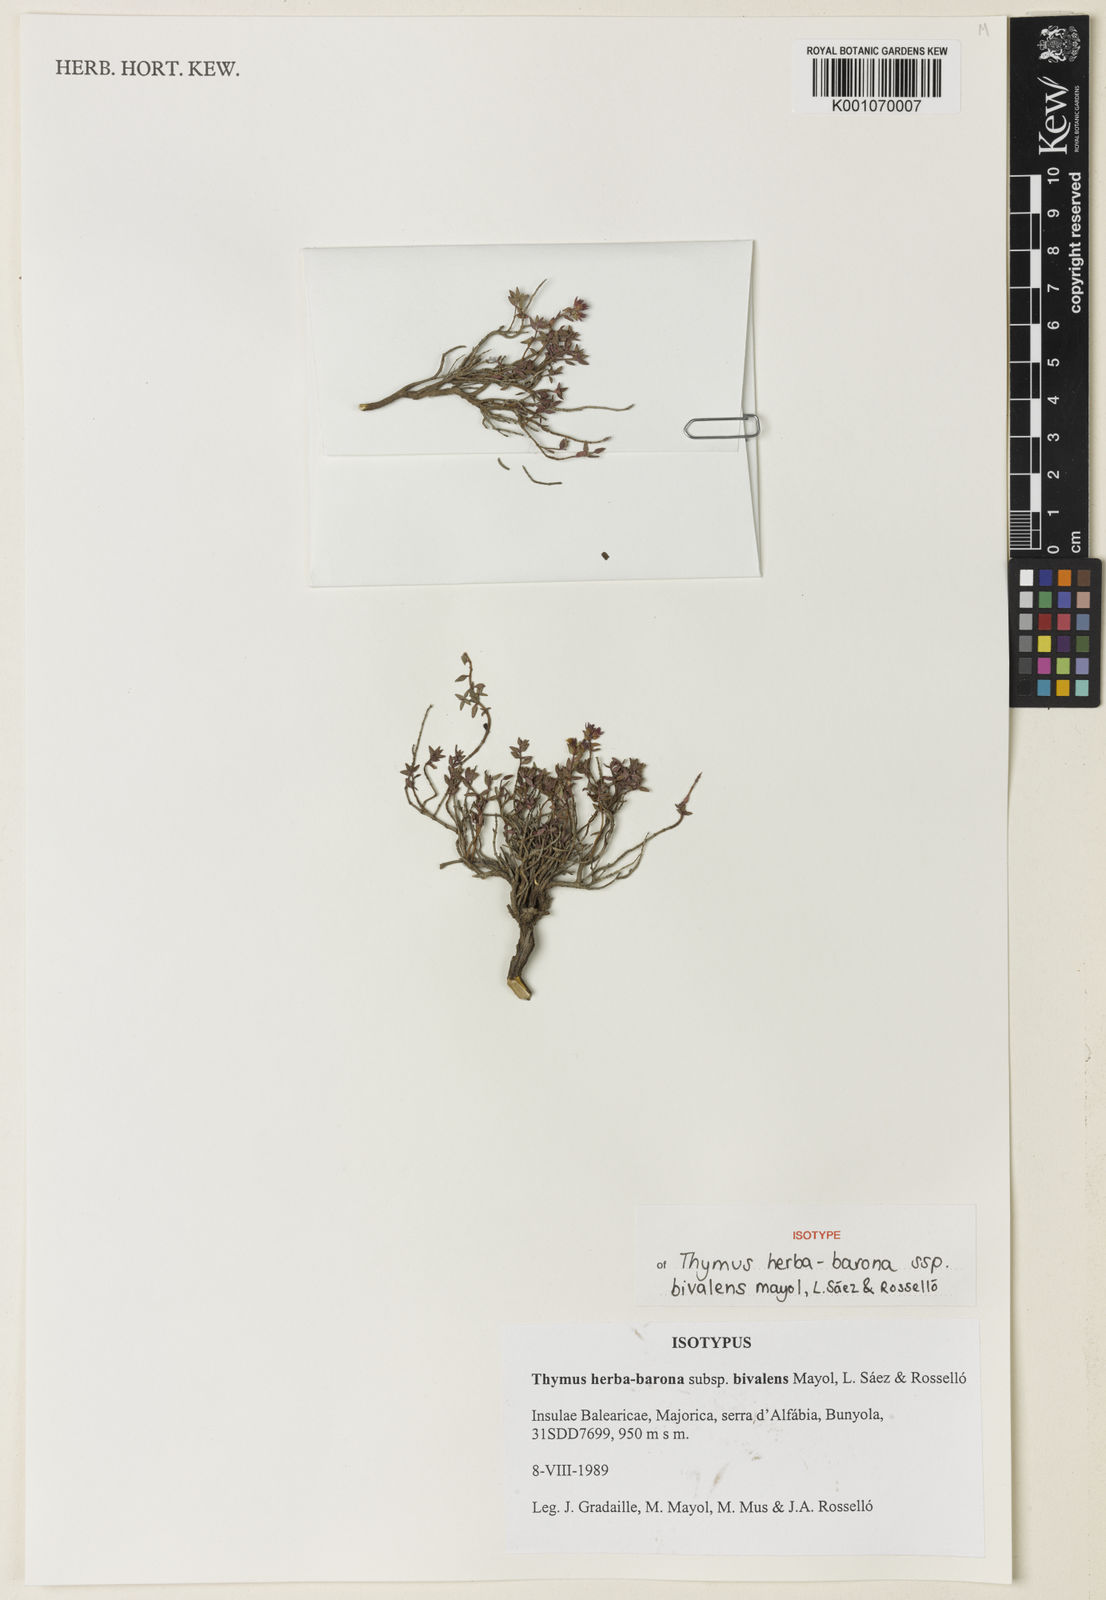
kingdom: Plantae
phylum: Tracheophyta
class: Magnoliopsida
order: Lamiales
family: Lamiaceae
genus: Thymus
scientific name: Thymus herba-barona
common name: Caraway thyme
